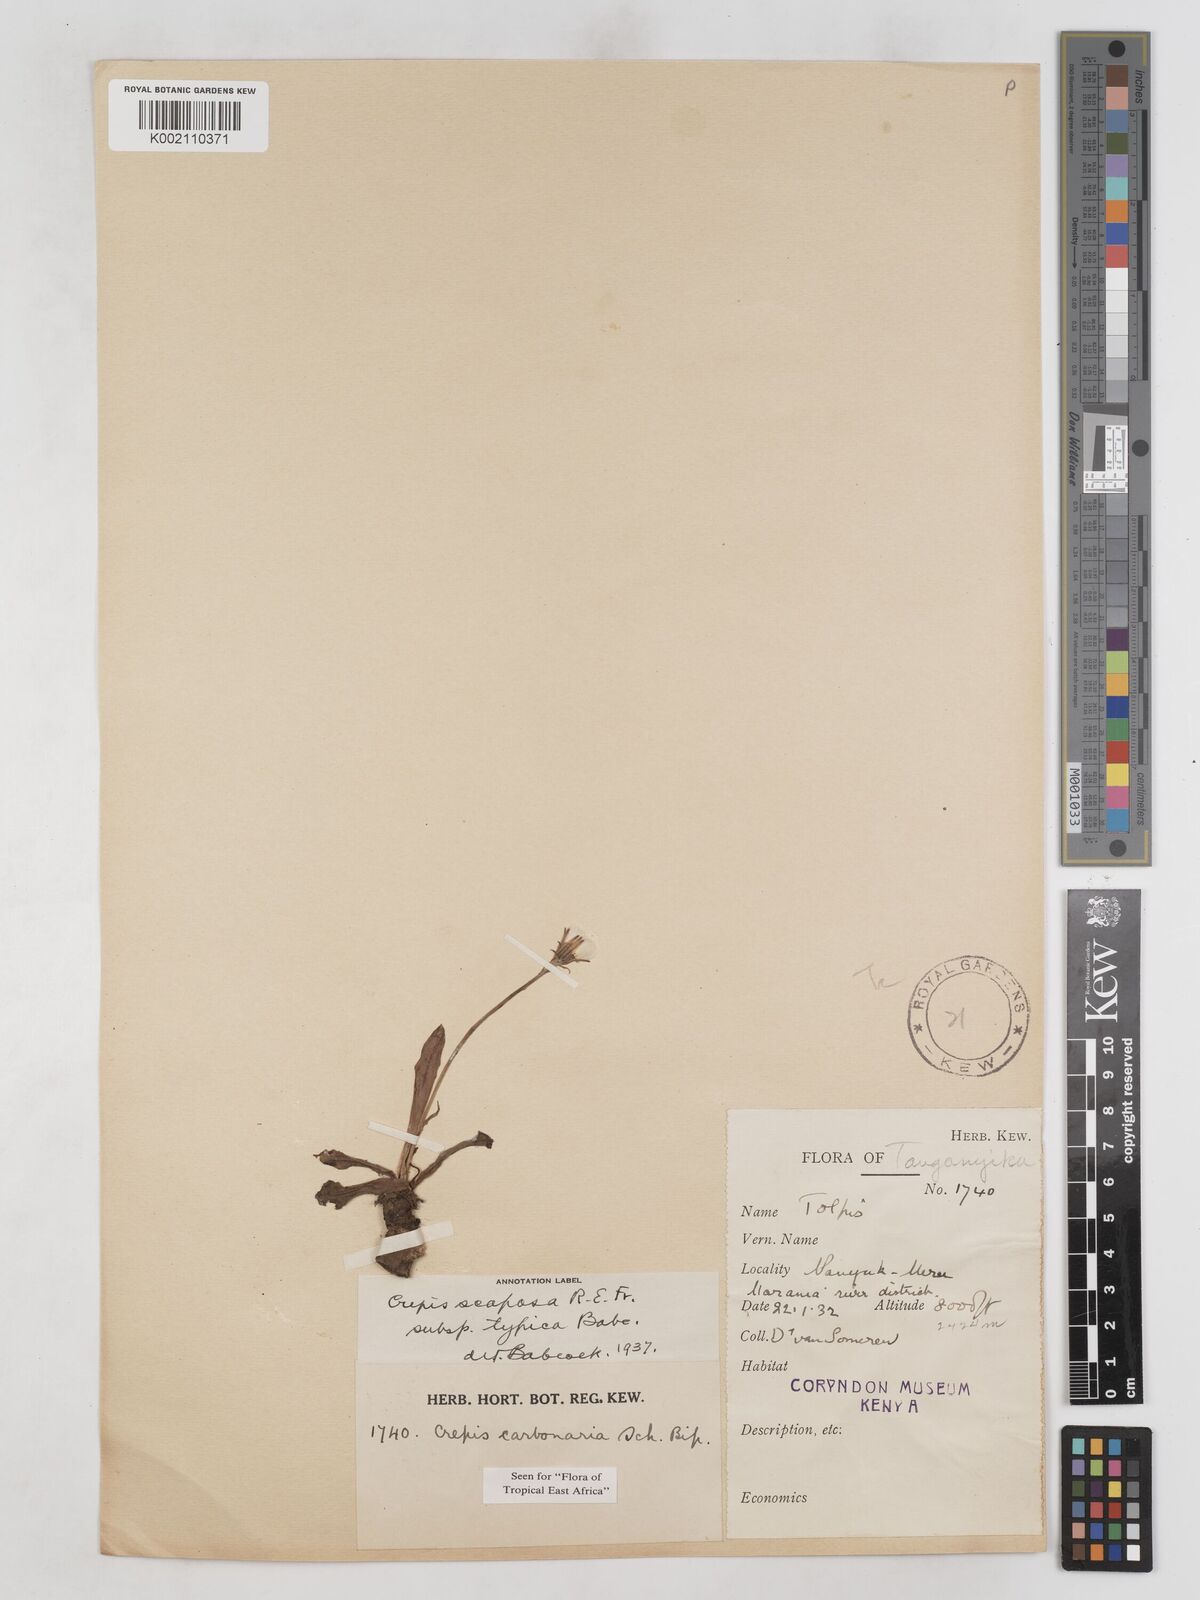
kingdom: Plantae
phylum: Tracheophyta
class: Magnoliopsida
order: Asterales
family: Asteraceae
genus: Crepis
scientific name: Crepis carbonaria
